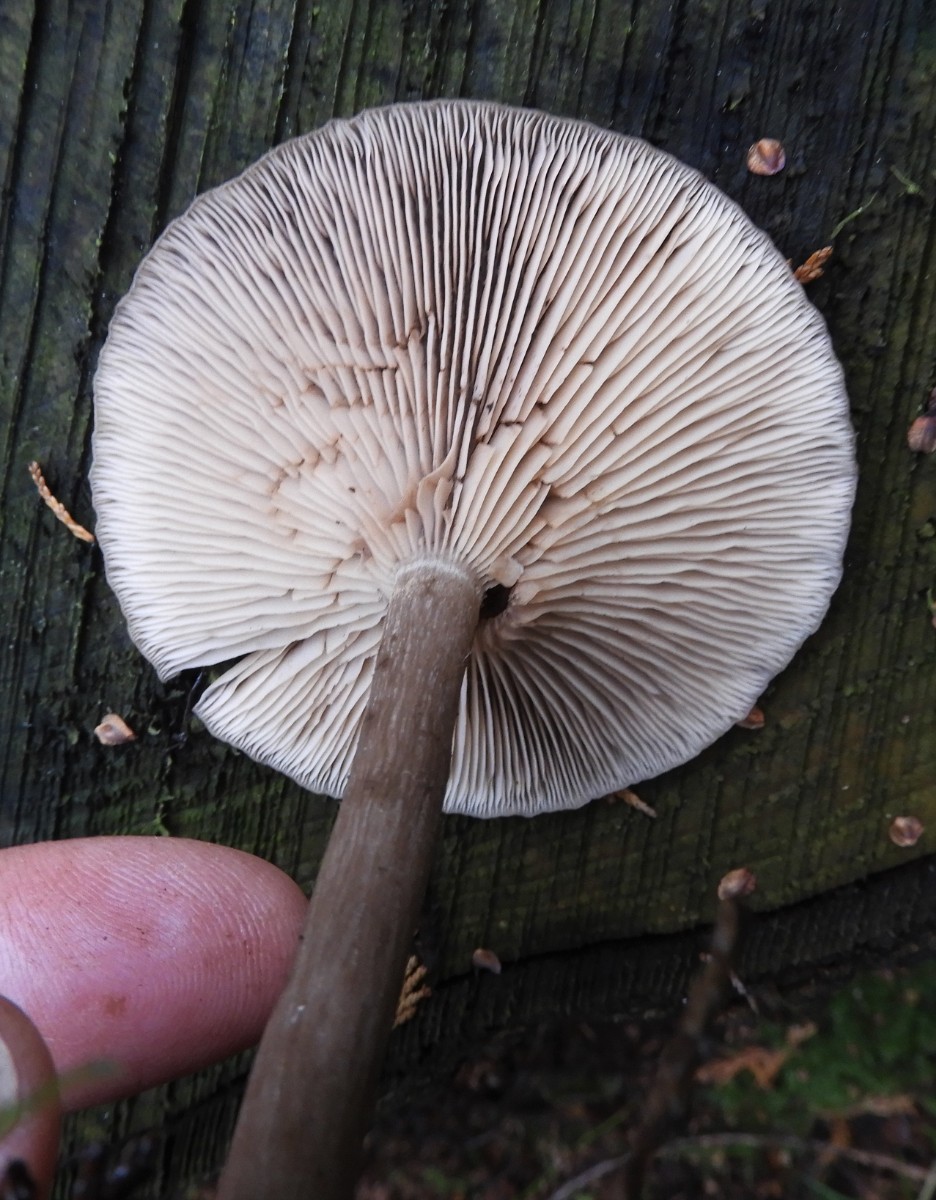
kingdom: Fungi
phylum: Basidiomycota
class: Agaricomycetes
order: Agaricales
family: Pseudoclitocybaceae
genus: Pseudoclitocybe
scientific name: Pseudoclitocybe cyathiformis
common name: almindelig bægertragthat
